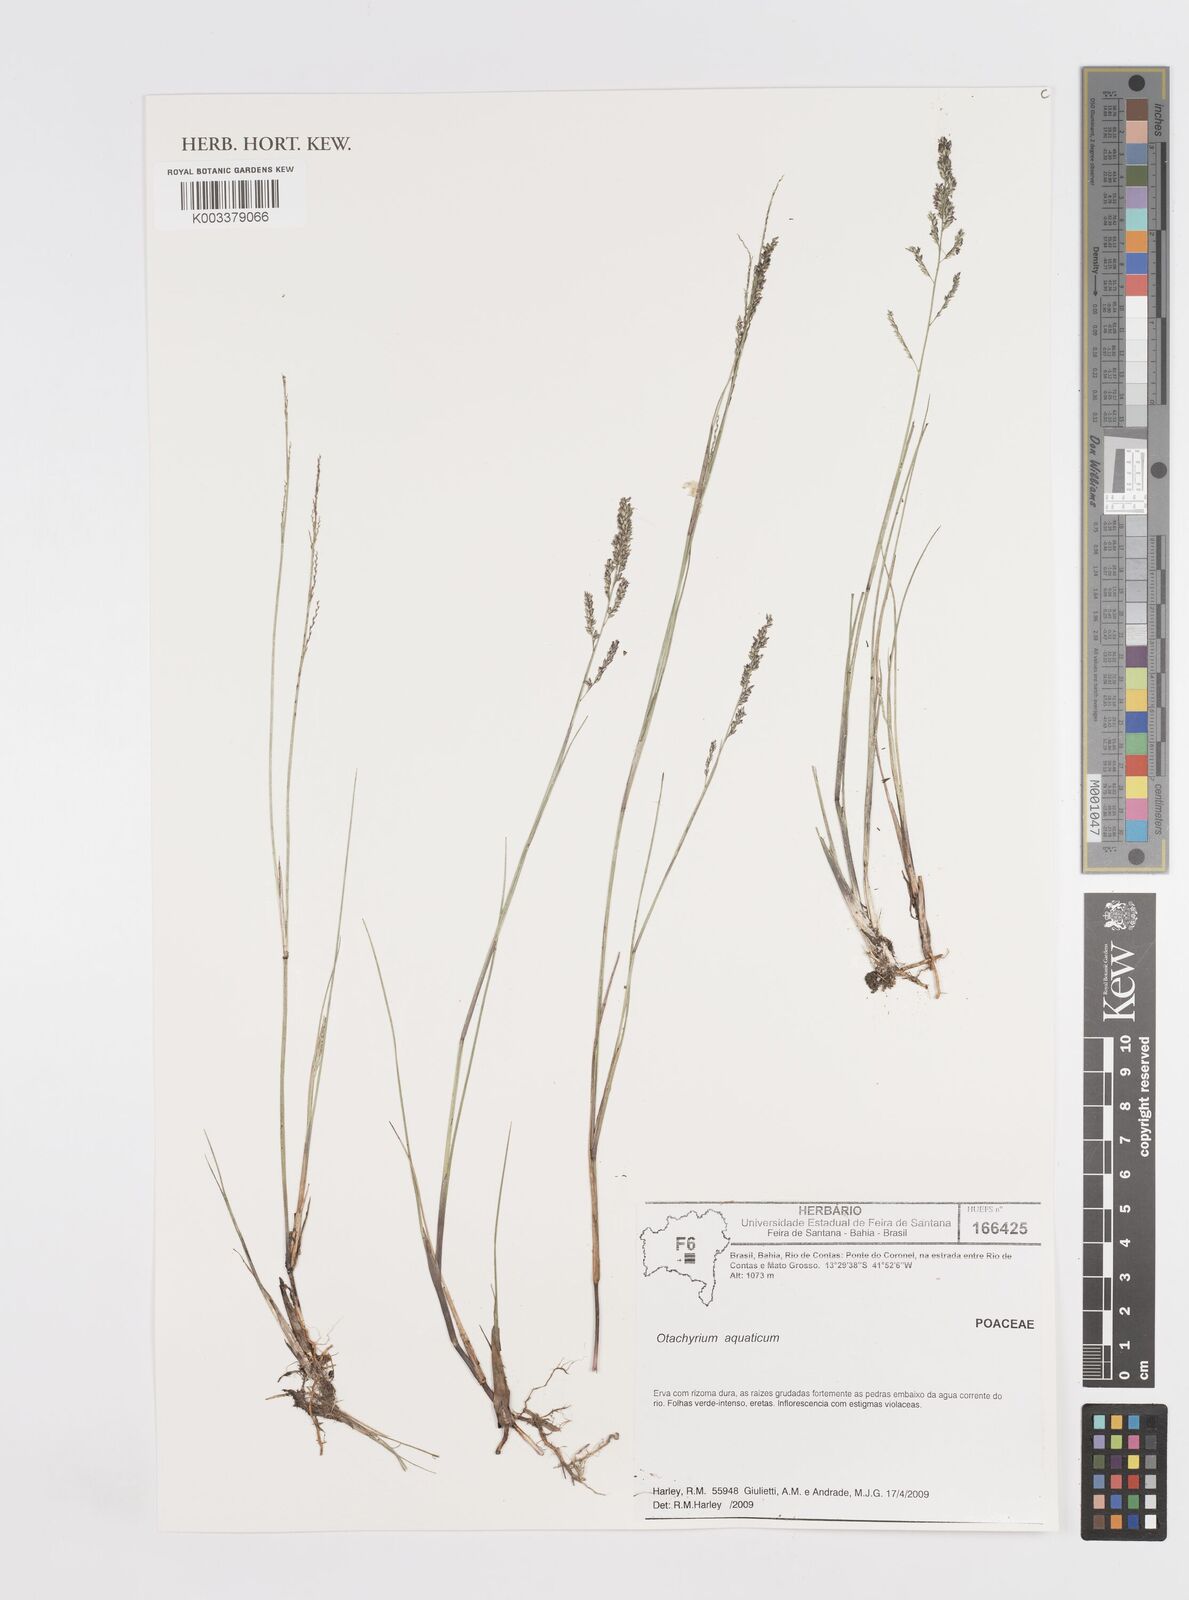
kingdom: Plantae
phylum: Tracheophyta
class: Liliopsida
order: Poales
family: Poaceae
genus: Otachyrium
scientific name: Otachyrium aquaticum
